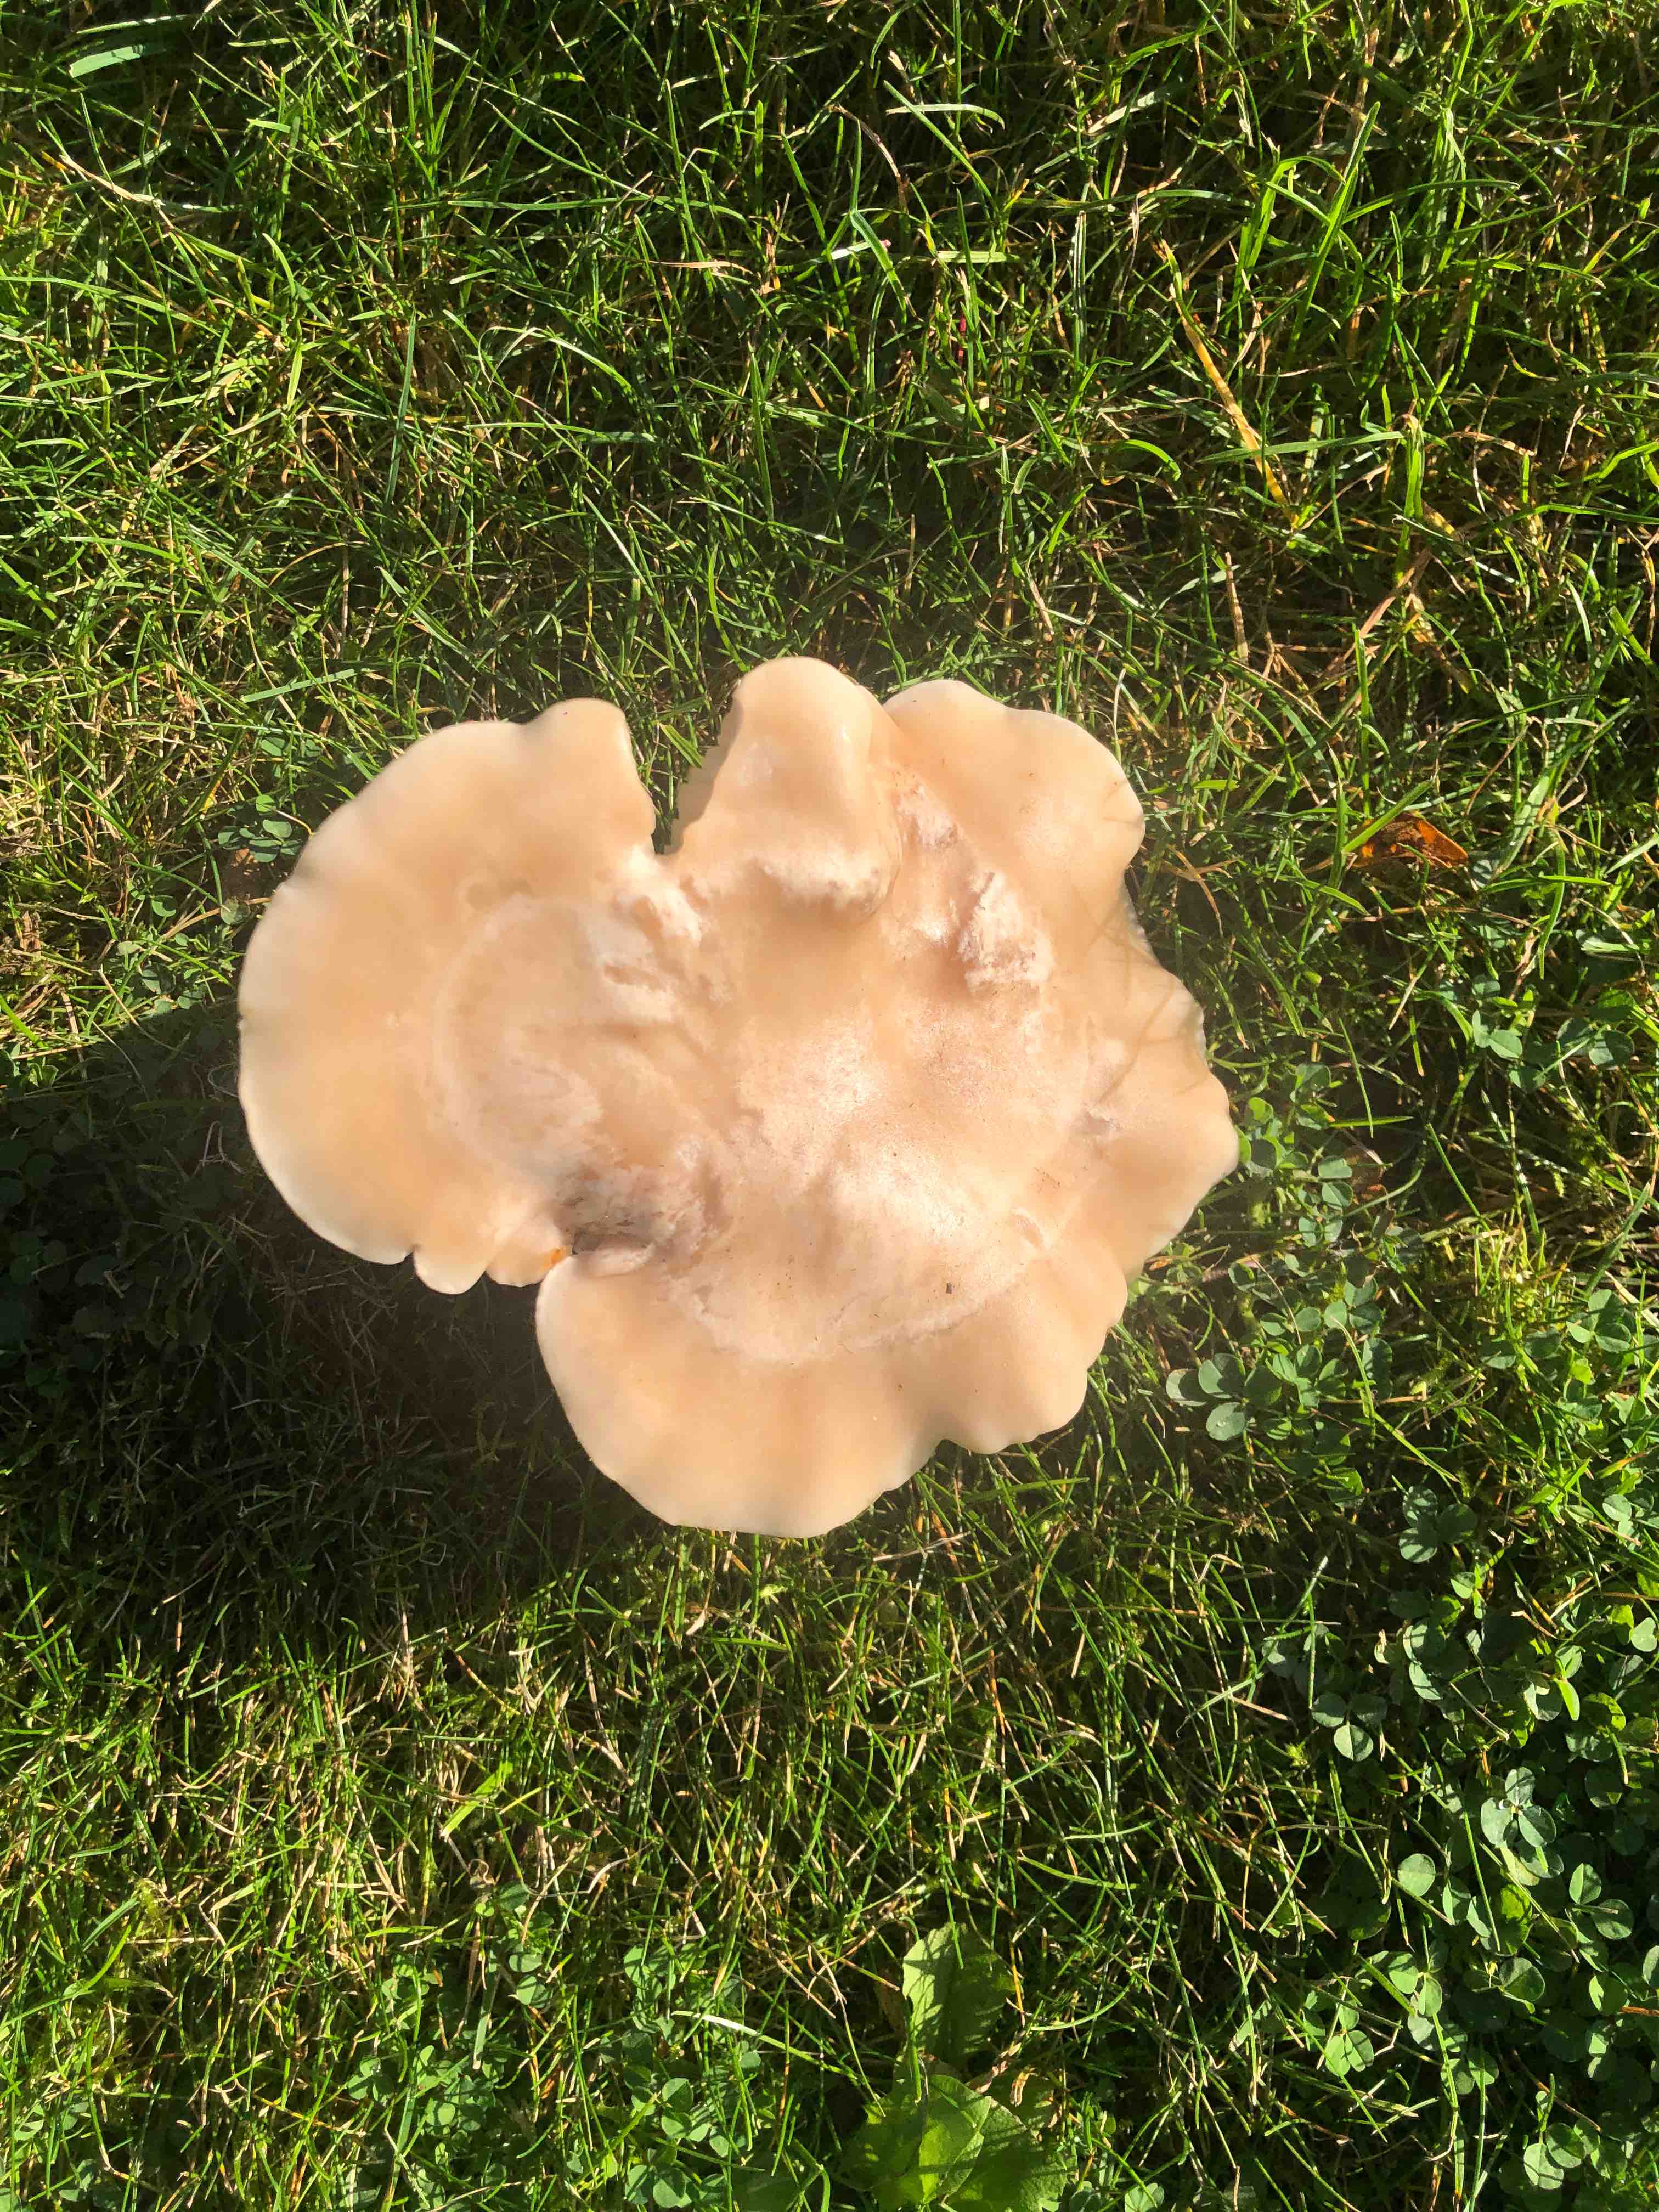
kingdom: Fungi
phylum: Basidiomycota
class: Agaricomycetes
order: Agaricales
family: Tricholomataceae
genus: Lepista
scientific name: Lepista personata
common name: bleg hekseringshat
